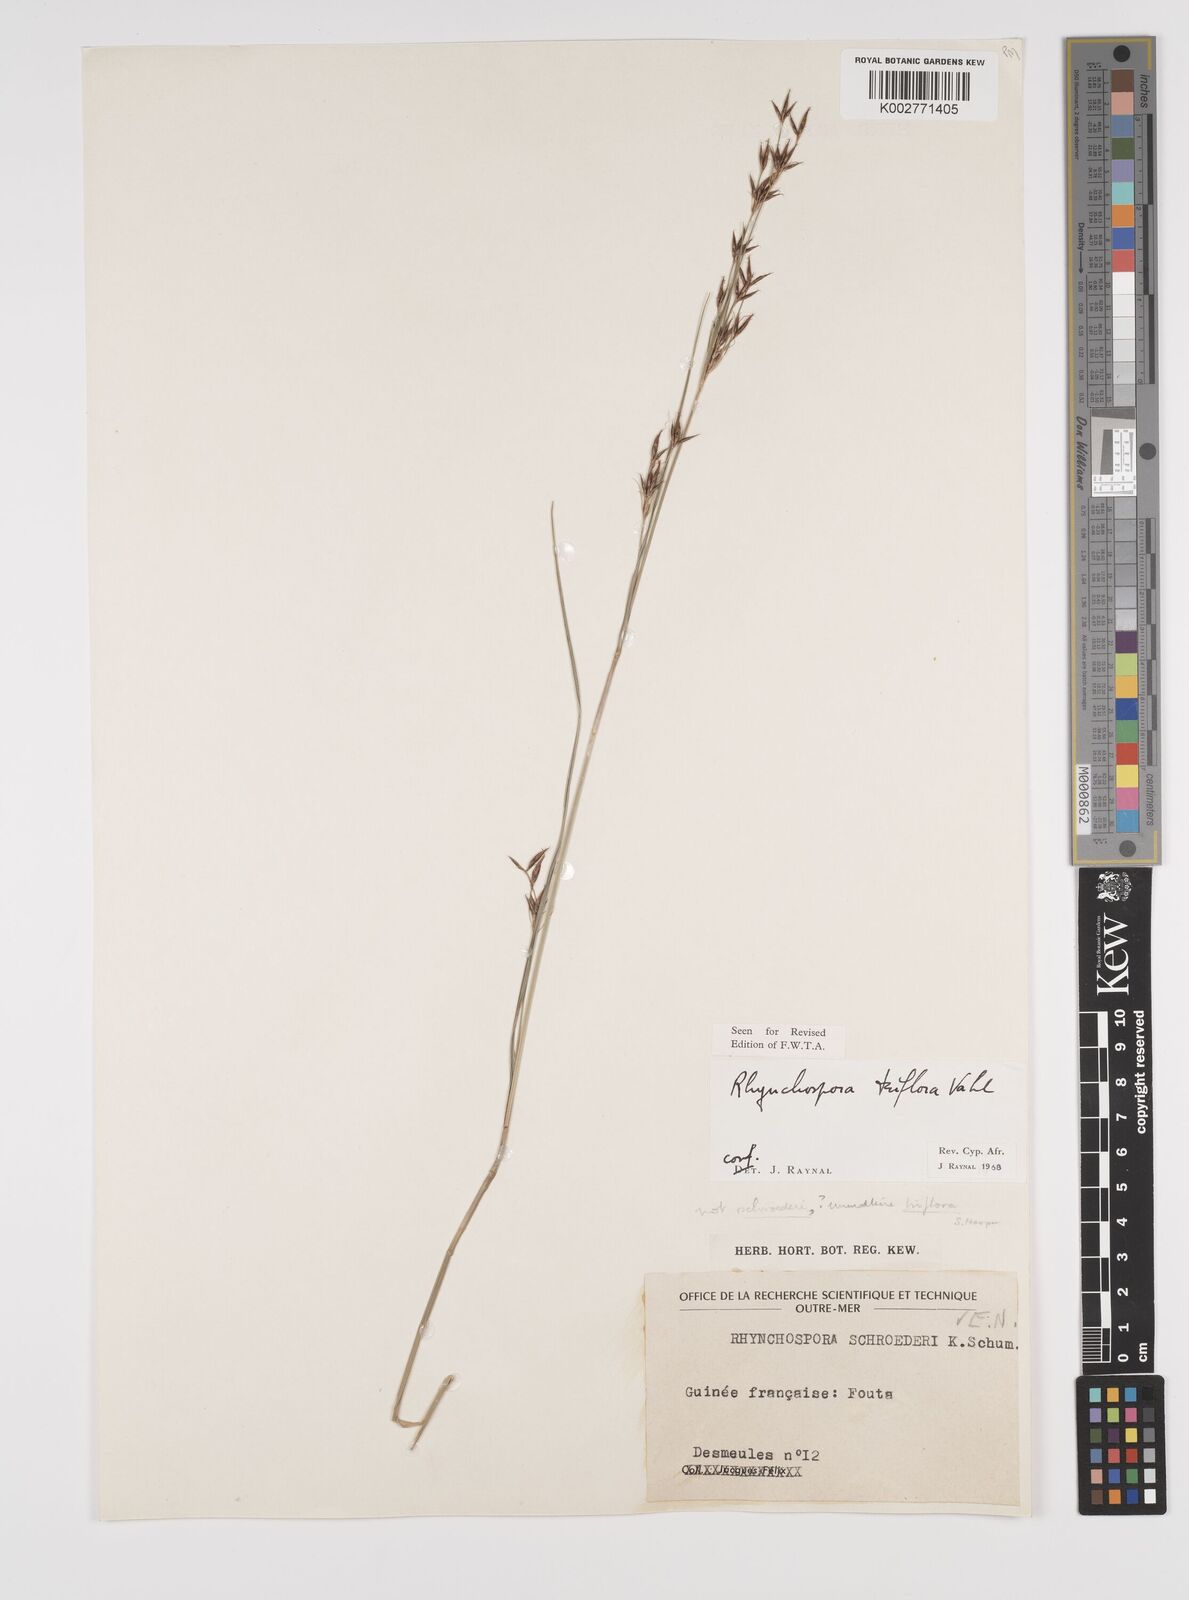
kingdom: Plantae
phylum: Tracheophyta
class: Liliopsida
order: Poales
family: Cyperaceae
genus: Rhynchospora
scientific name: Rhynchospora triflora
